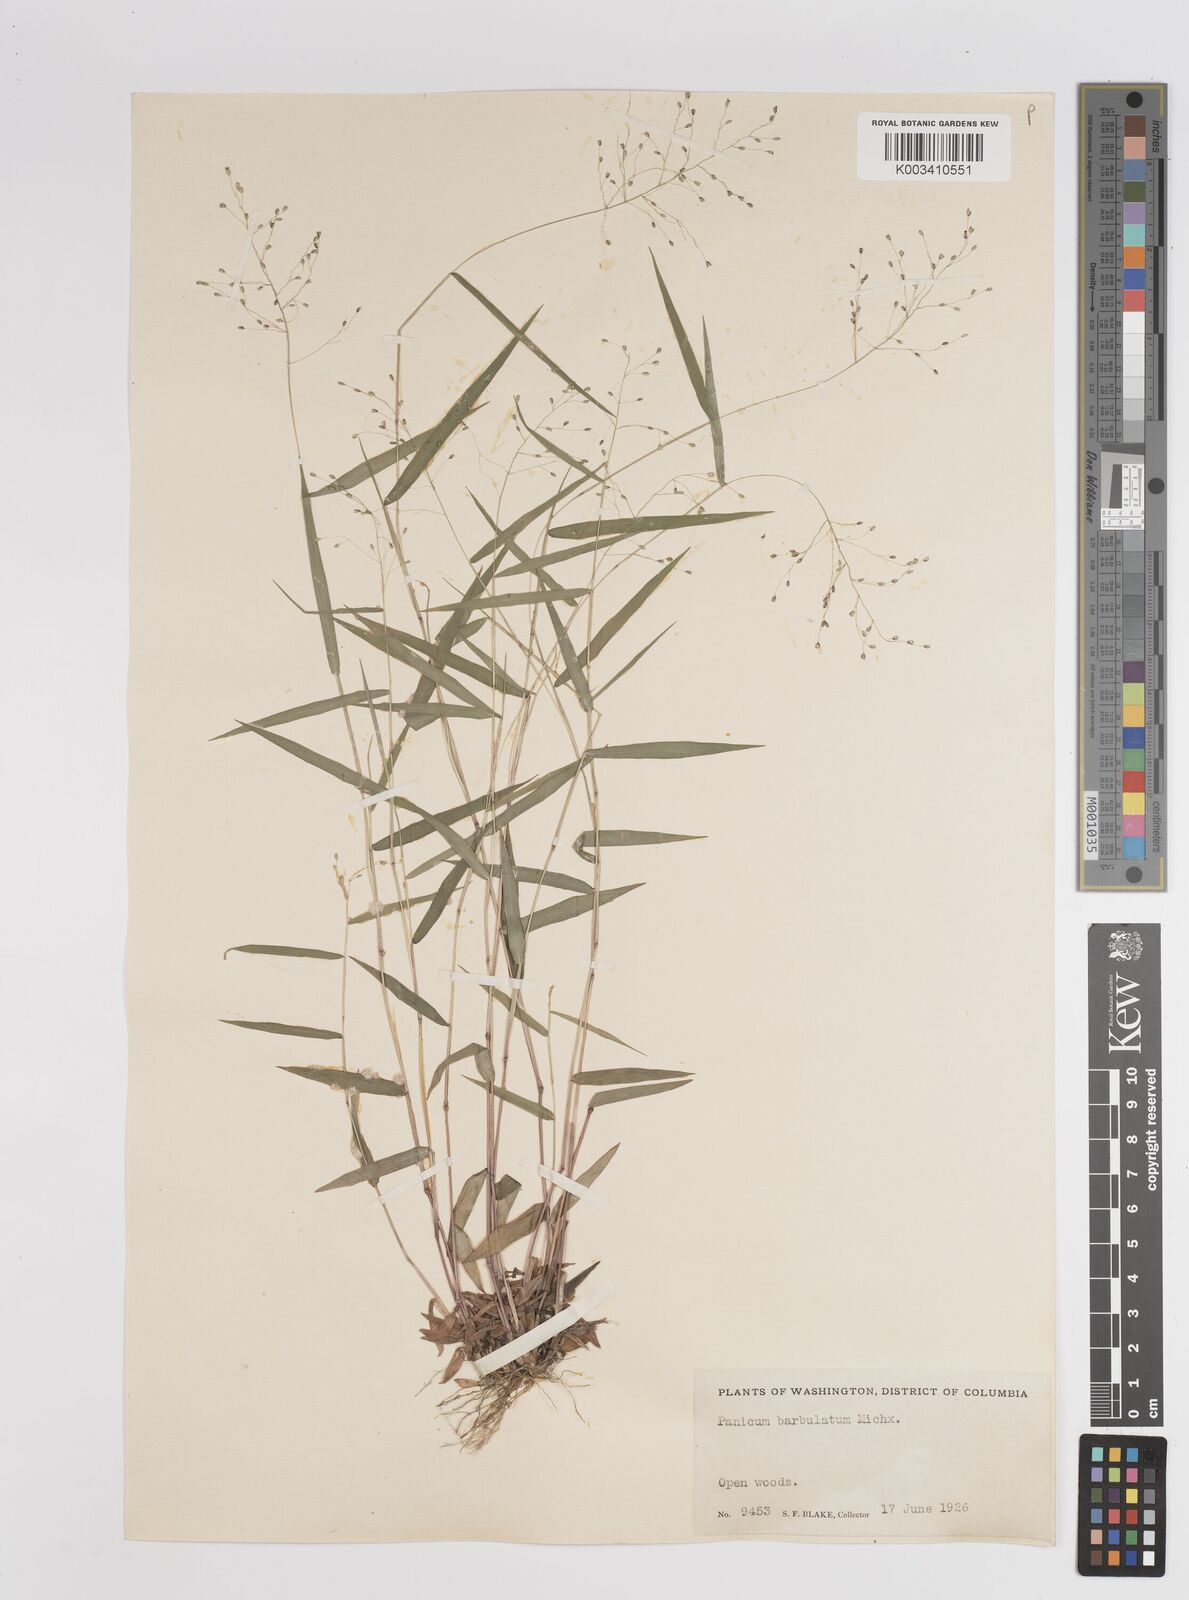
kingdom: Plantae
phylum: Tracheophyta
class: Liliopsida
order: Poales
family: Poaceae
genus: Dichanthelium
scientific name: Dichanthelium dichotomum
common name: Cypress panicgrass
